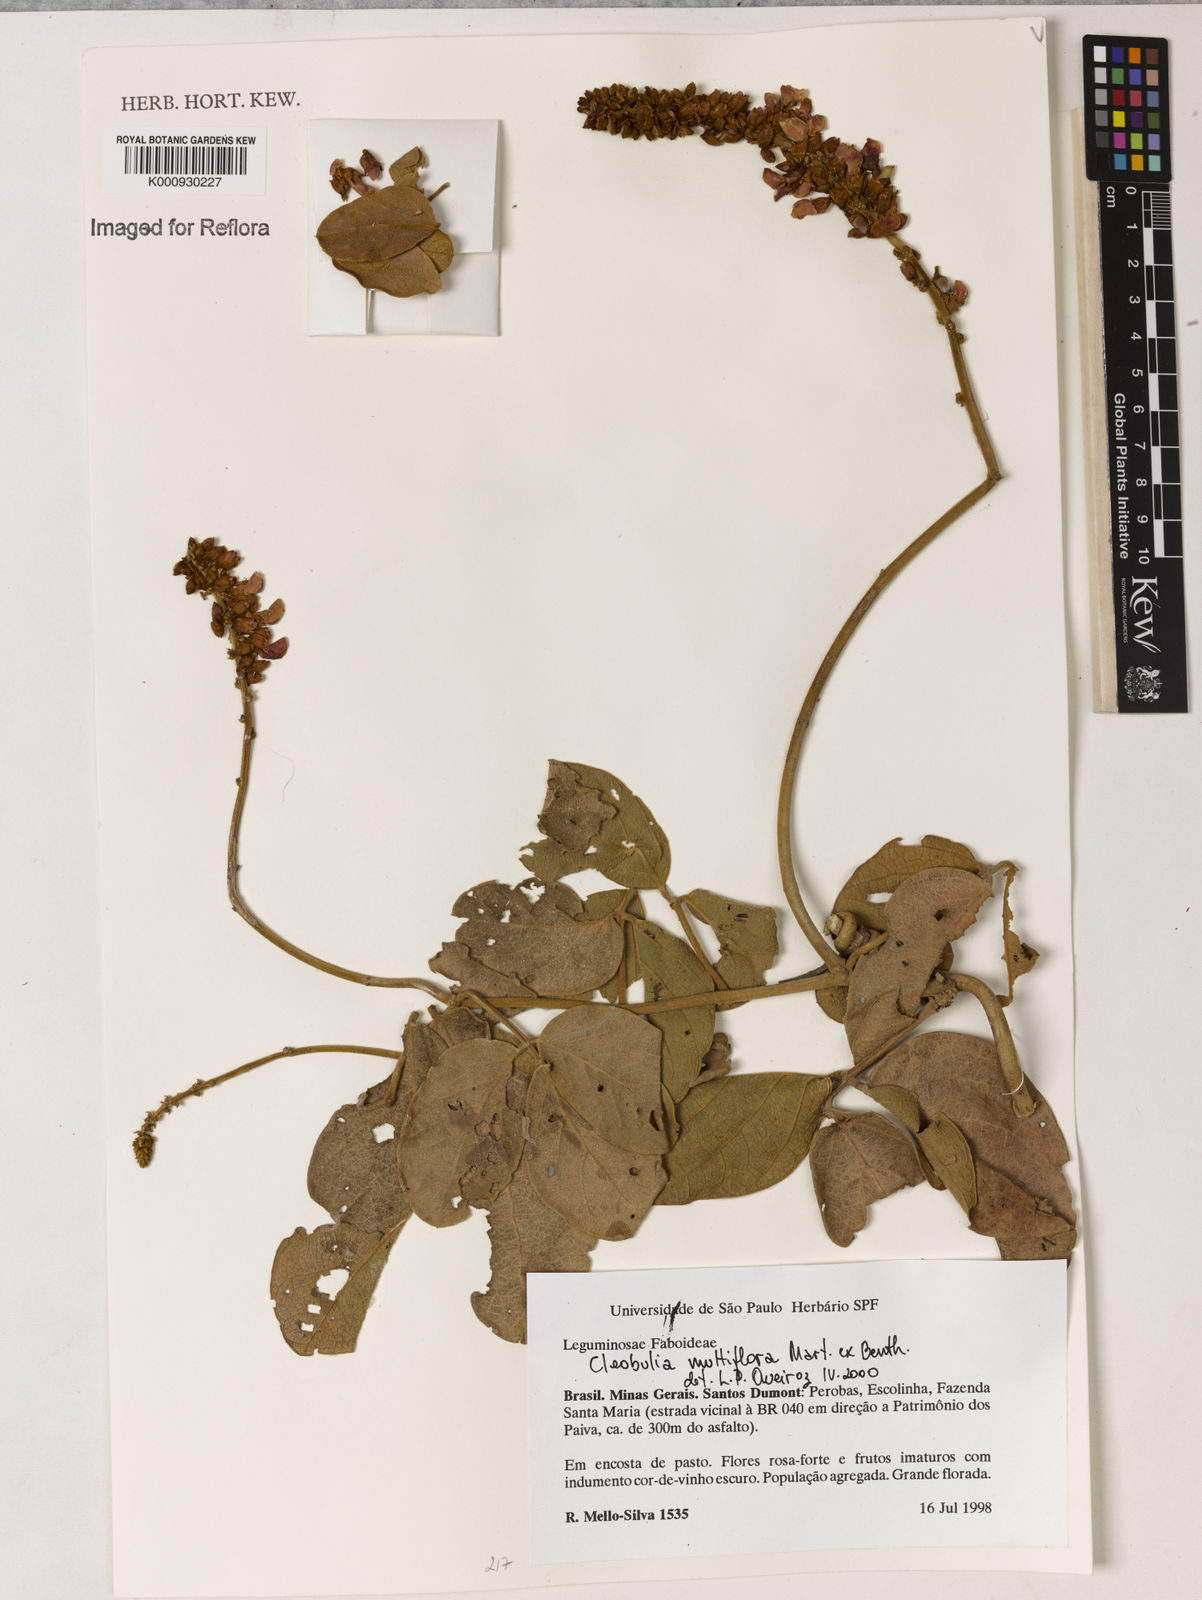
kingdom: Plantae
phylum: Tracheophyta
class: Magnoliopsida
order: Fabales
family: Fabaceae
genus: Cleobulia
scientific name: Cleobulia coccinea
